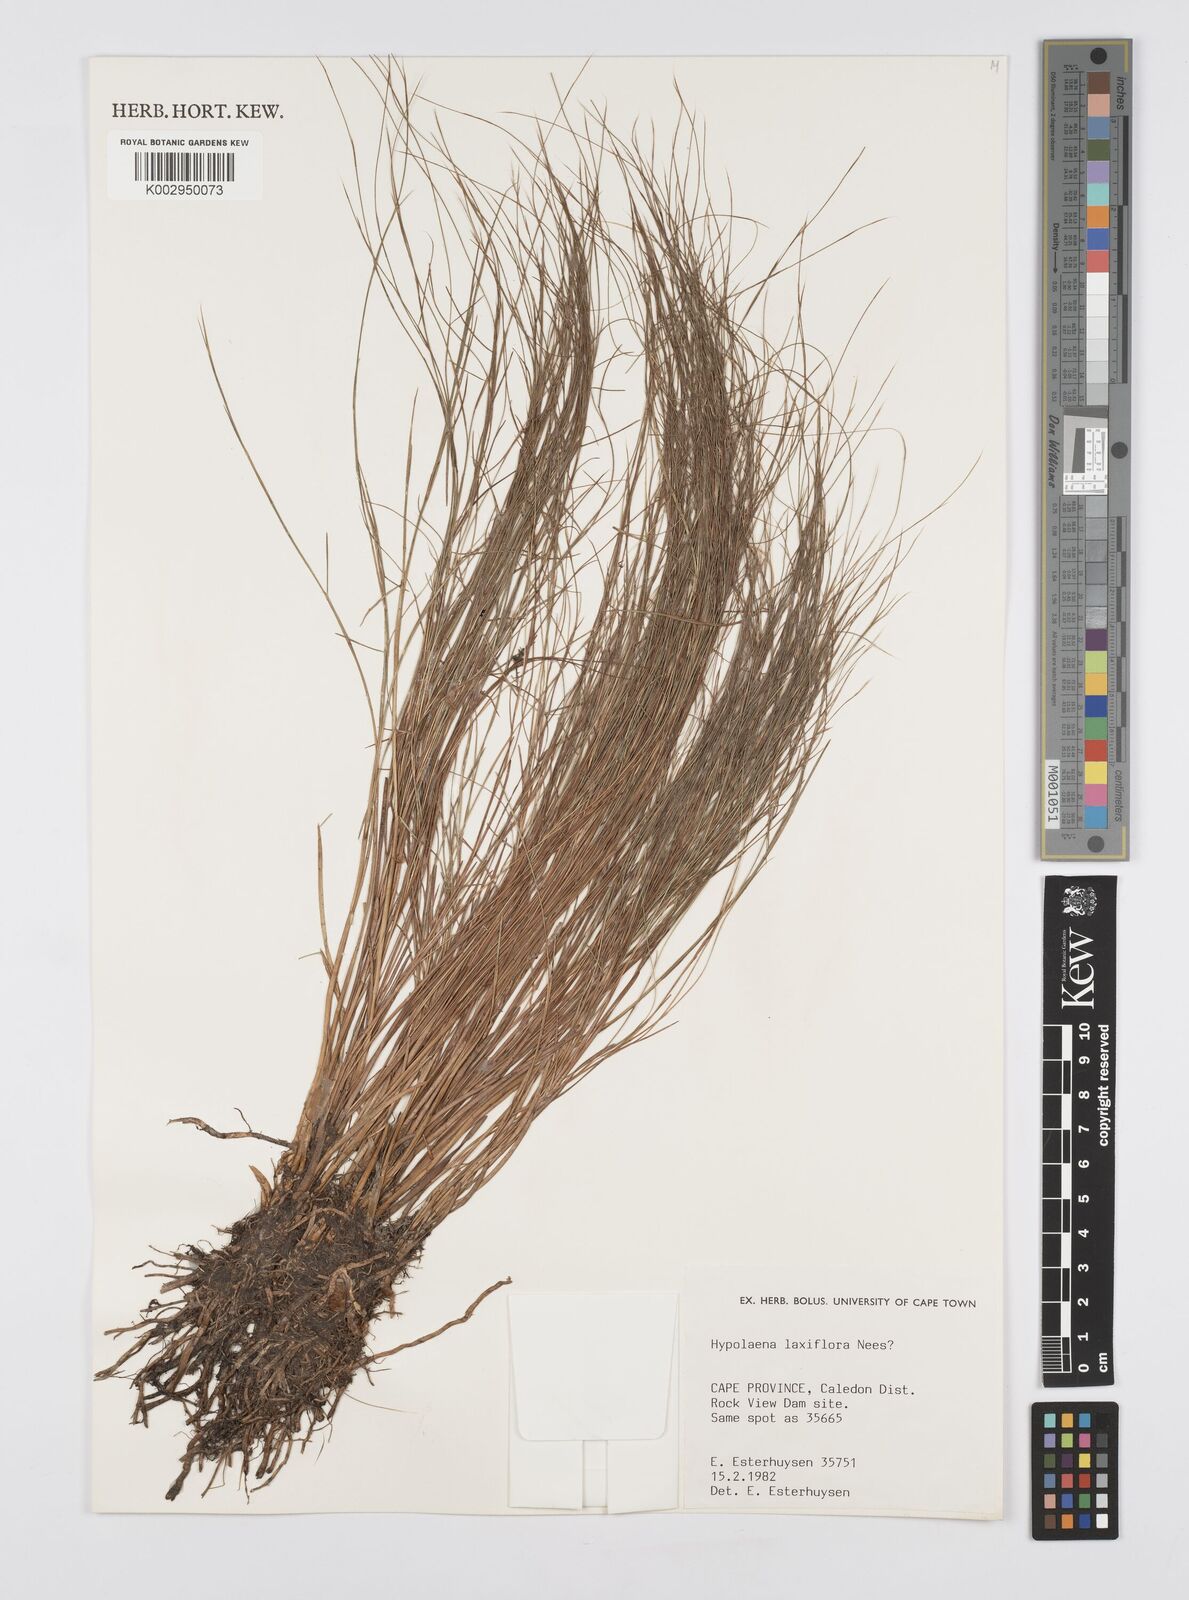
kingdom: Plantae
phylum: Tracheophyta
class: Liliopsida
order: Poales
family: Restionaceae
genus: Anthochortus
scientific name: Anthochortus laxiflorus
